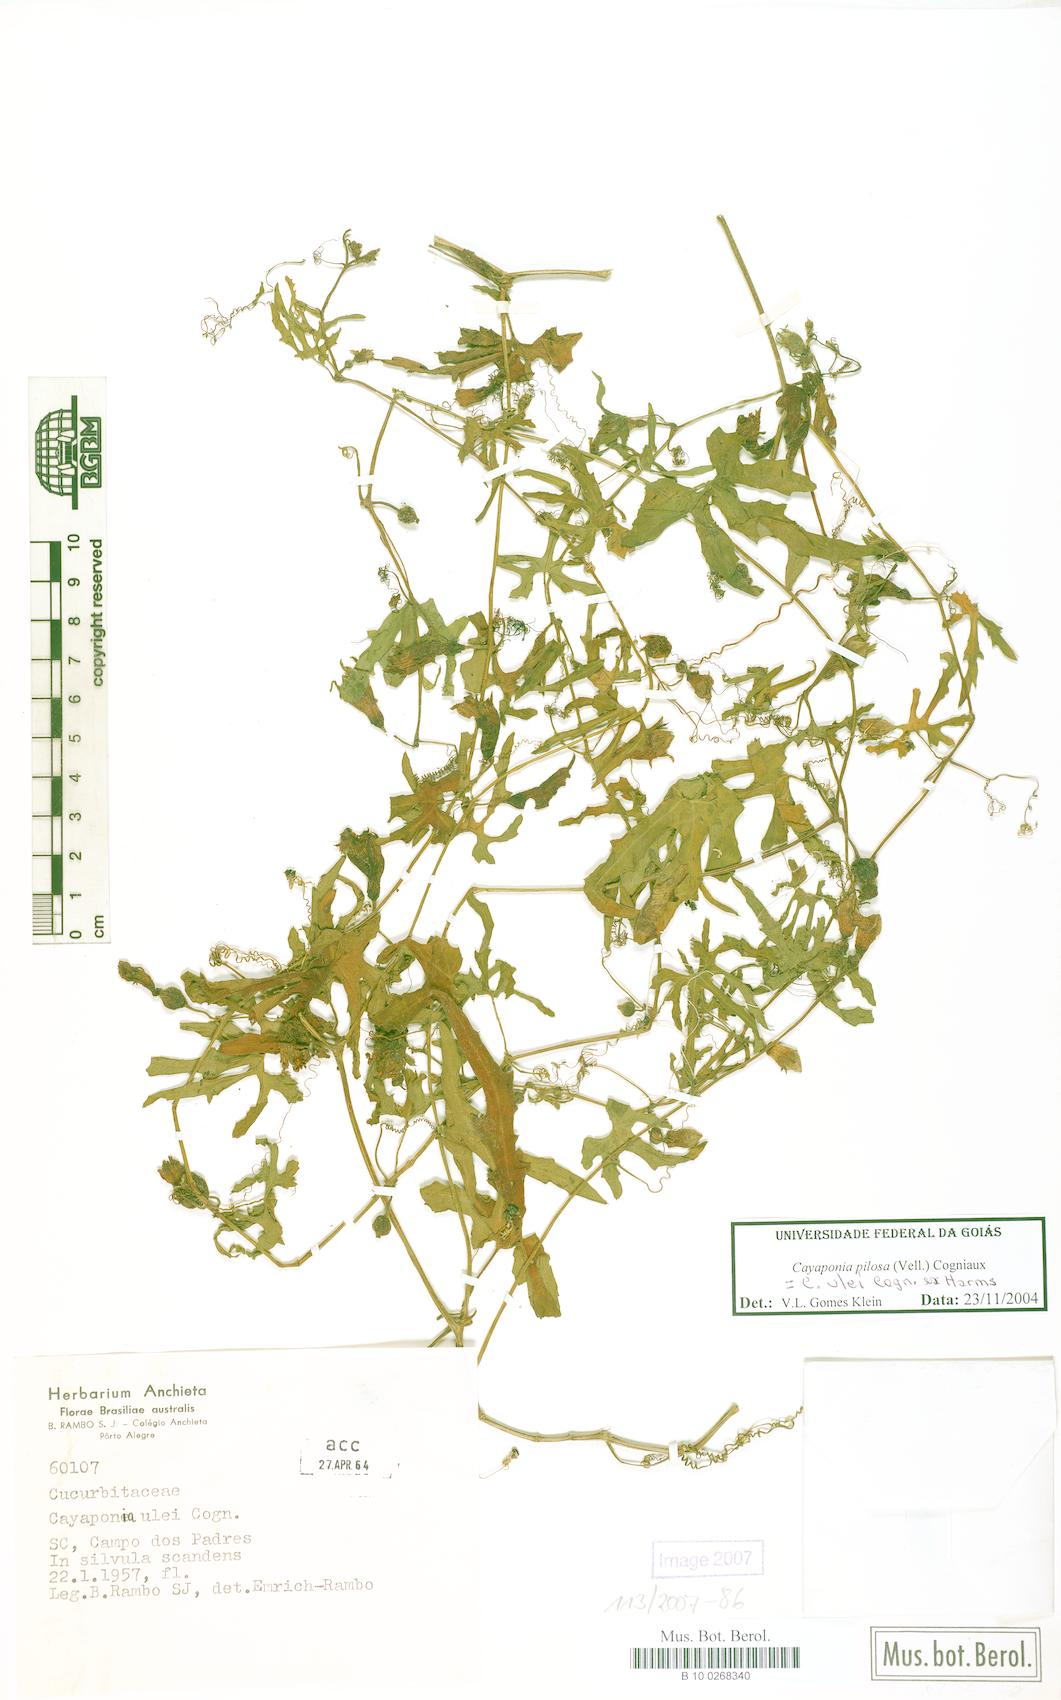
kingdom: Plantae
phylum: Tracheophyta
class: Magnoliopsida
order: Cucurbitales
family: Cucurbitaceae
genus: Cayaponia
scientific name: Cayaponia pilosa
